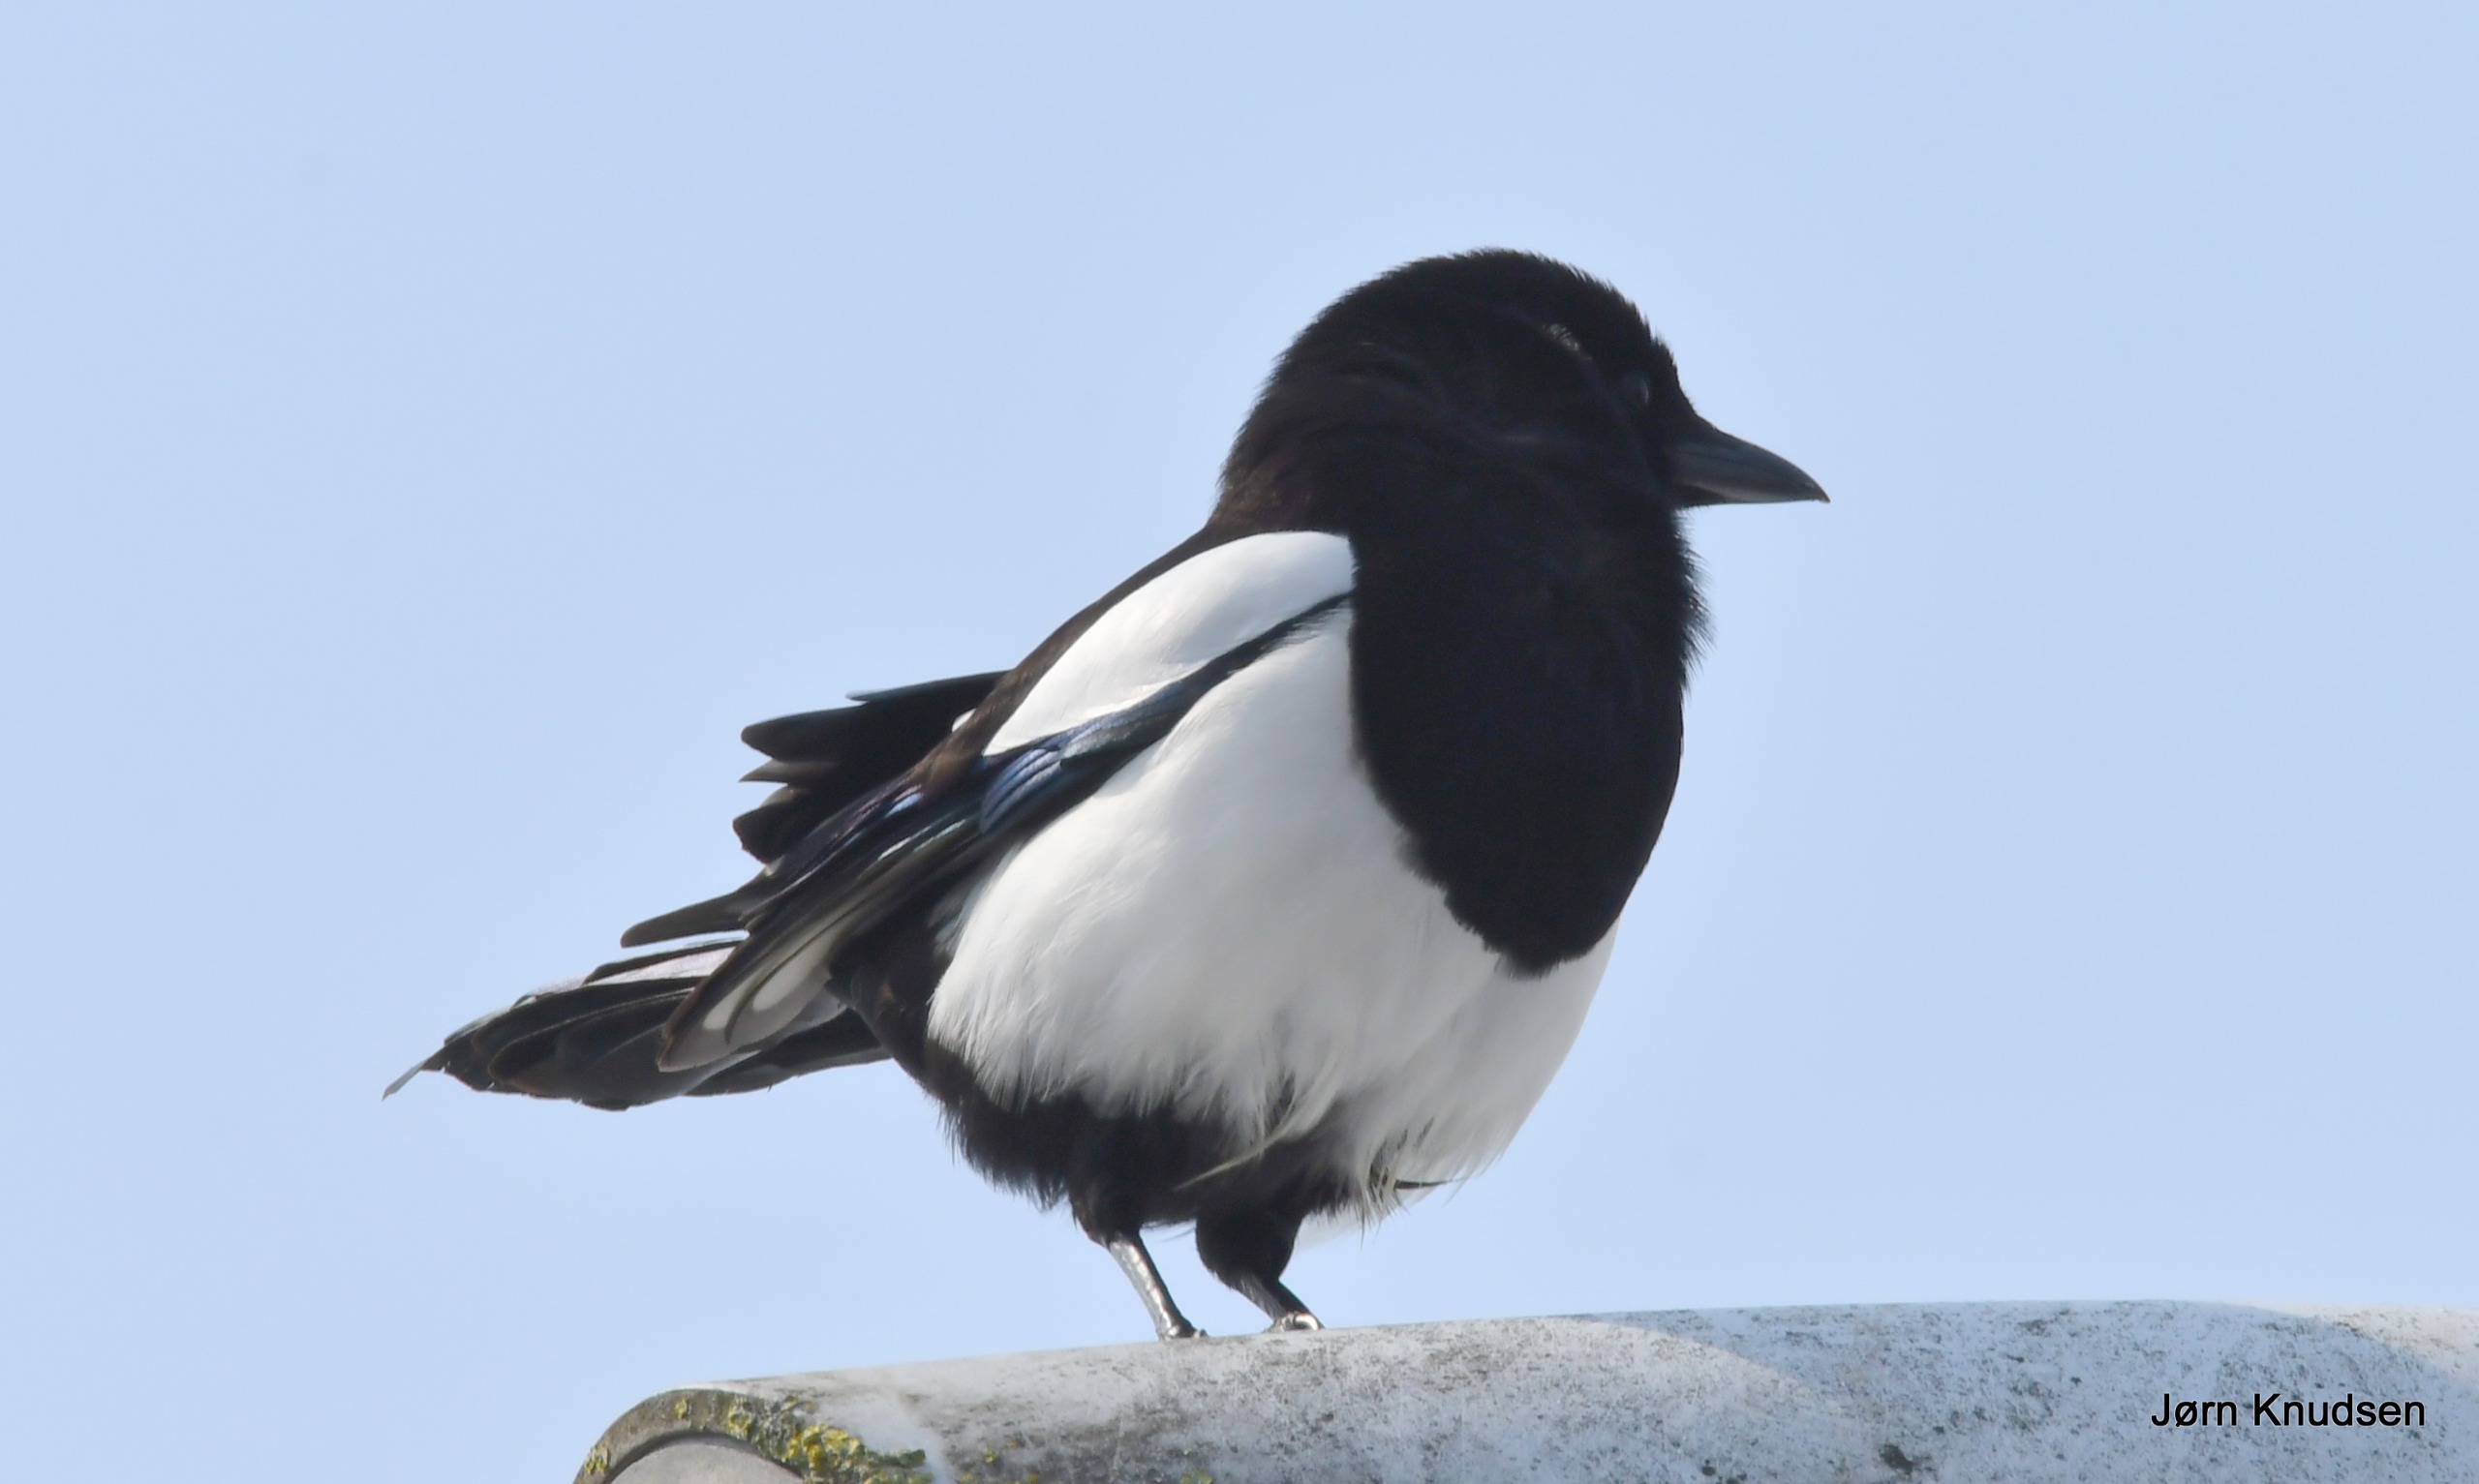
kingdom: Animalia
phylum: Chordata
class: Aves
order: Passeriformes
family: Corvidae
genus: Pica
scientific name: Pica pica
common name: Husskade
